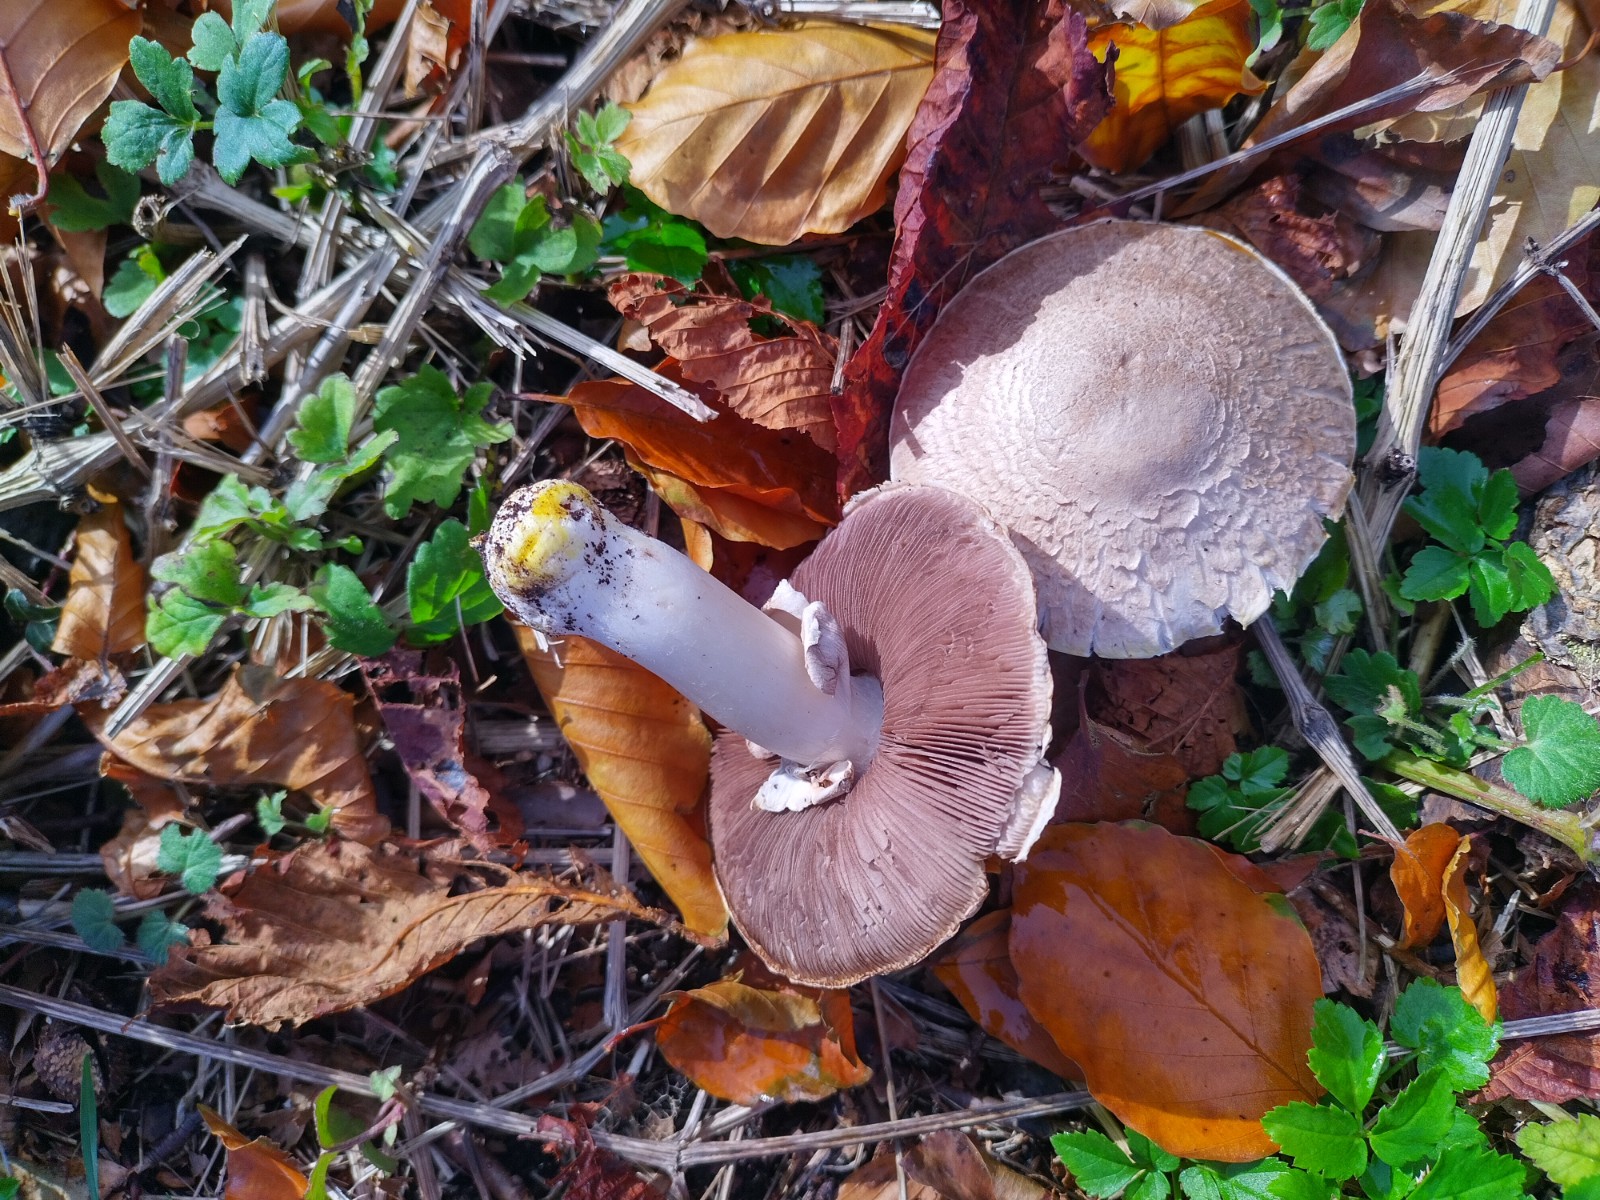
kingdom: Fungi
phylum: Basidiomycota
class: Agaricomycetes
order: Agaricales
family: Agaricaceae
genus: Agaricus
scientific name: Agaricus xanthodermus
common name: karbol-champignon
